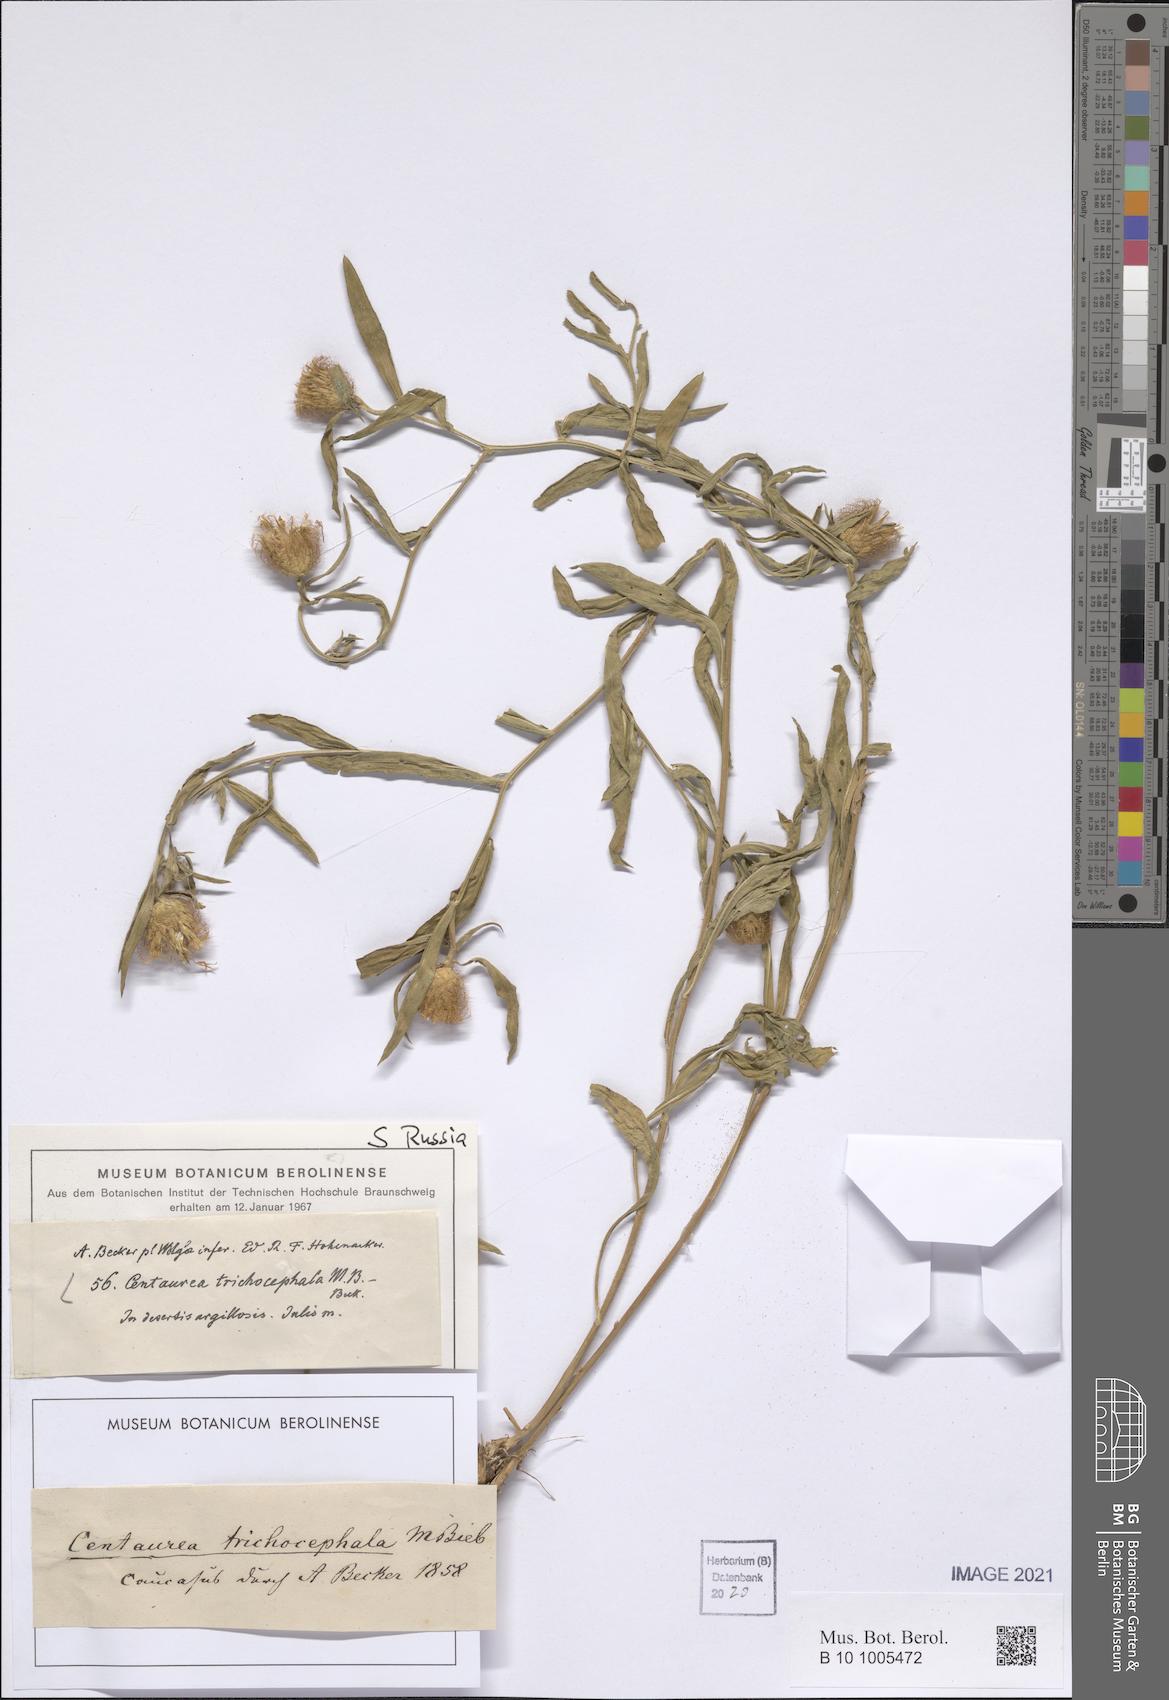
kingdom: Plantae
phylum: Tracheophyta
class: Magnoliopsida
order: Asterales
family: Asteraceae
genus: Centaurea
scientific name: Centaurea trichocephala
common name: Feather-head knapweed
